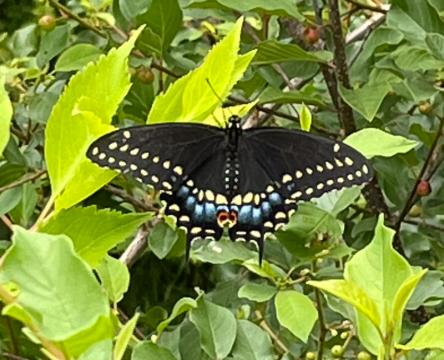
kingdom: Animalia
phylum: Arthropoda
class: Insecta
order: Lepidoptera
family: Papilionidae
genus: Papilio
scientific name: Papilio polyxenes
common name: Black Swallowtail
